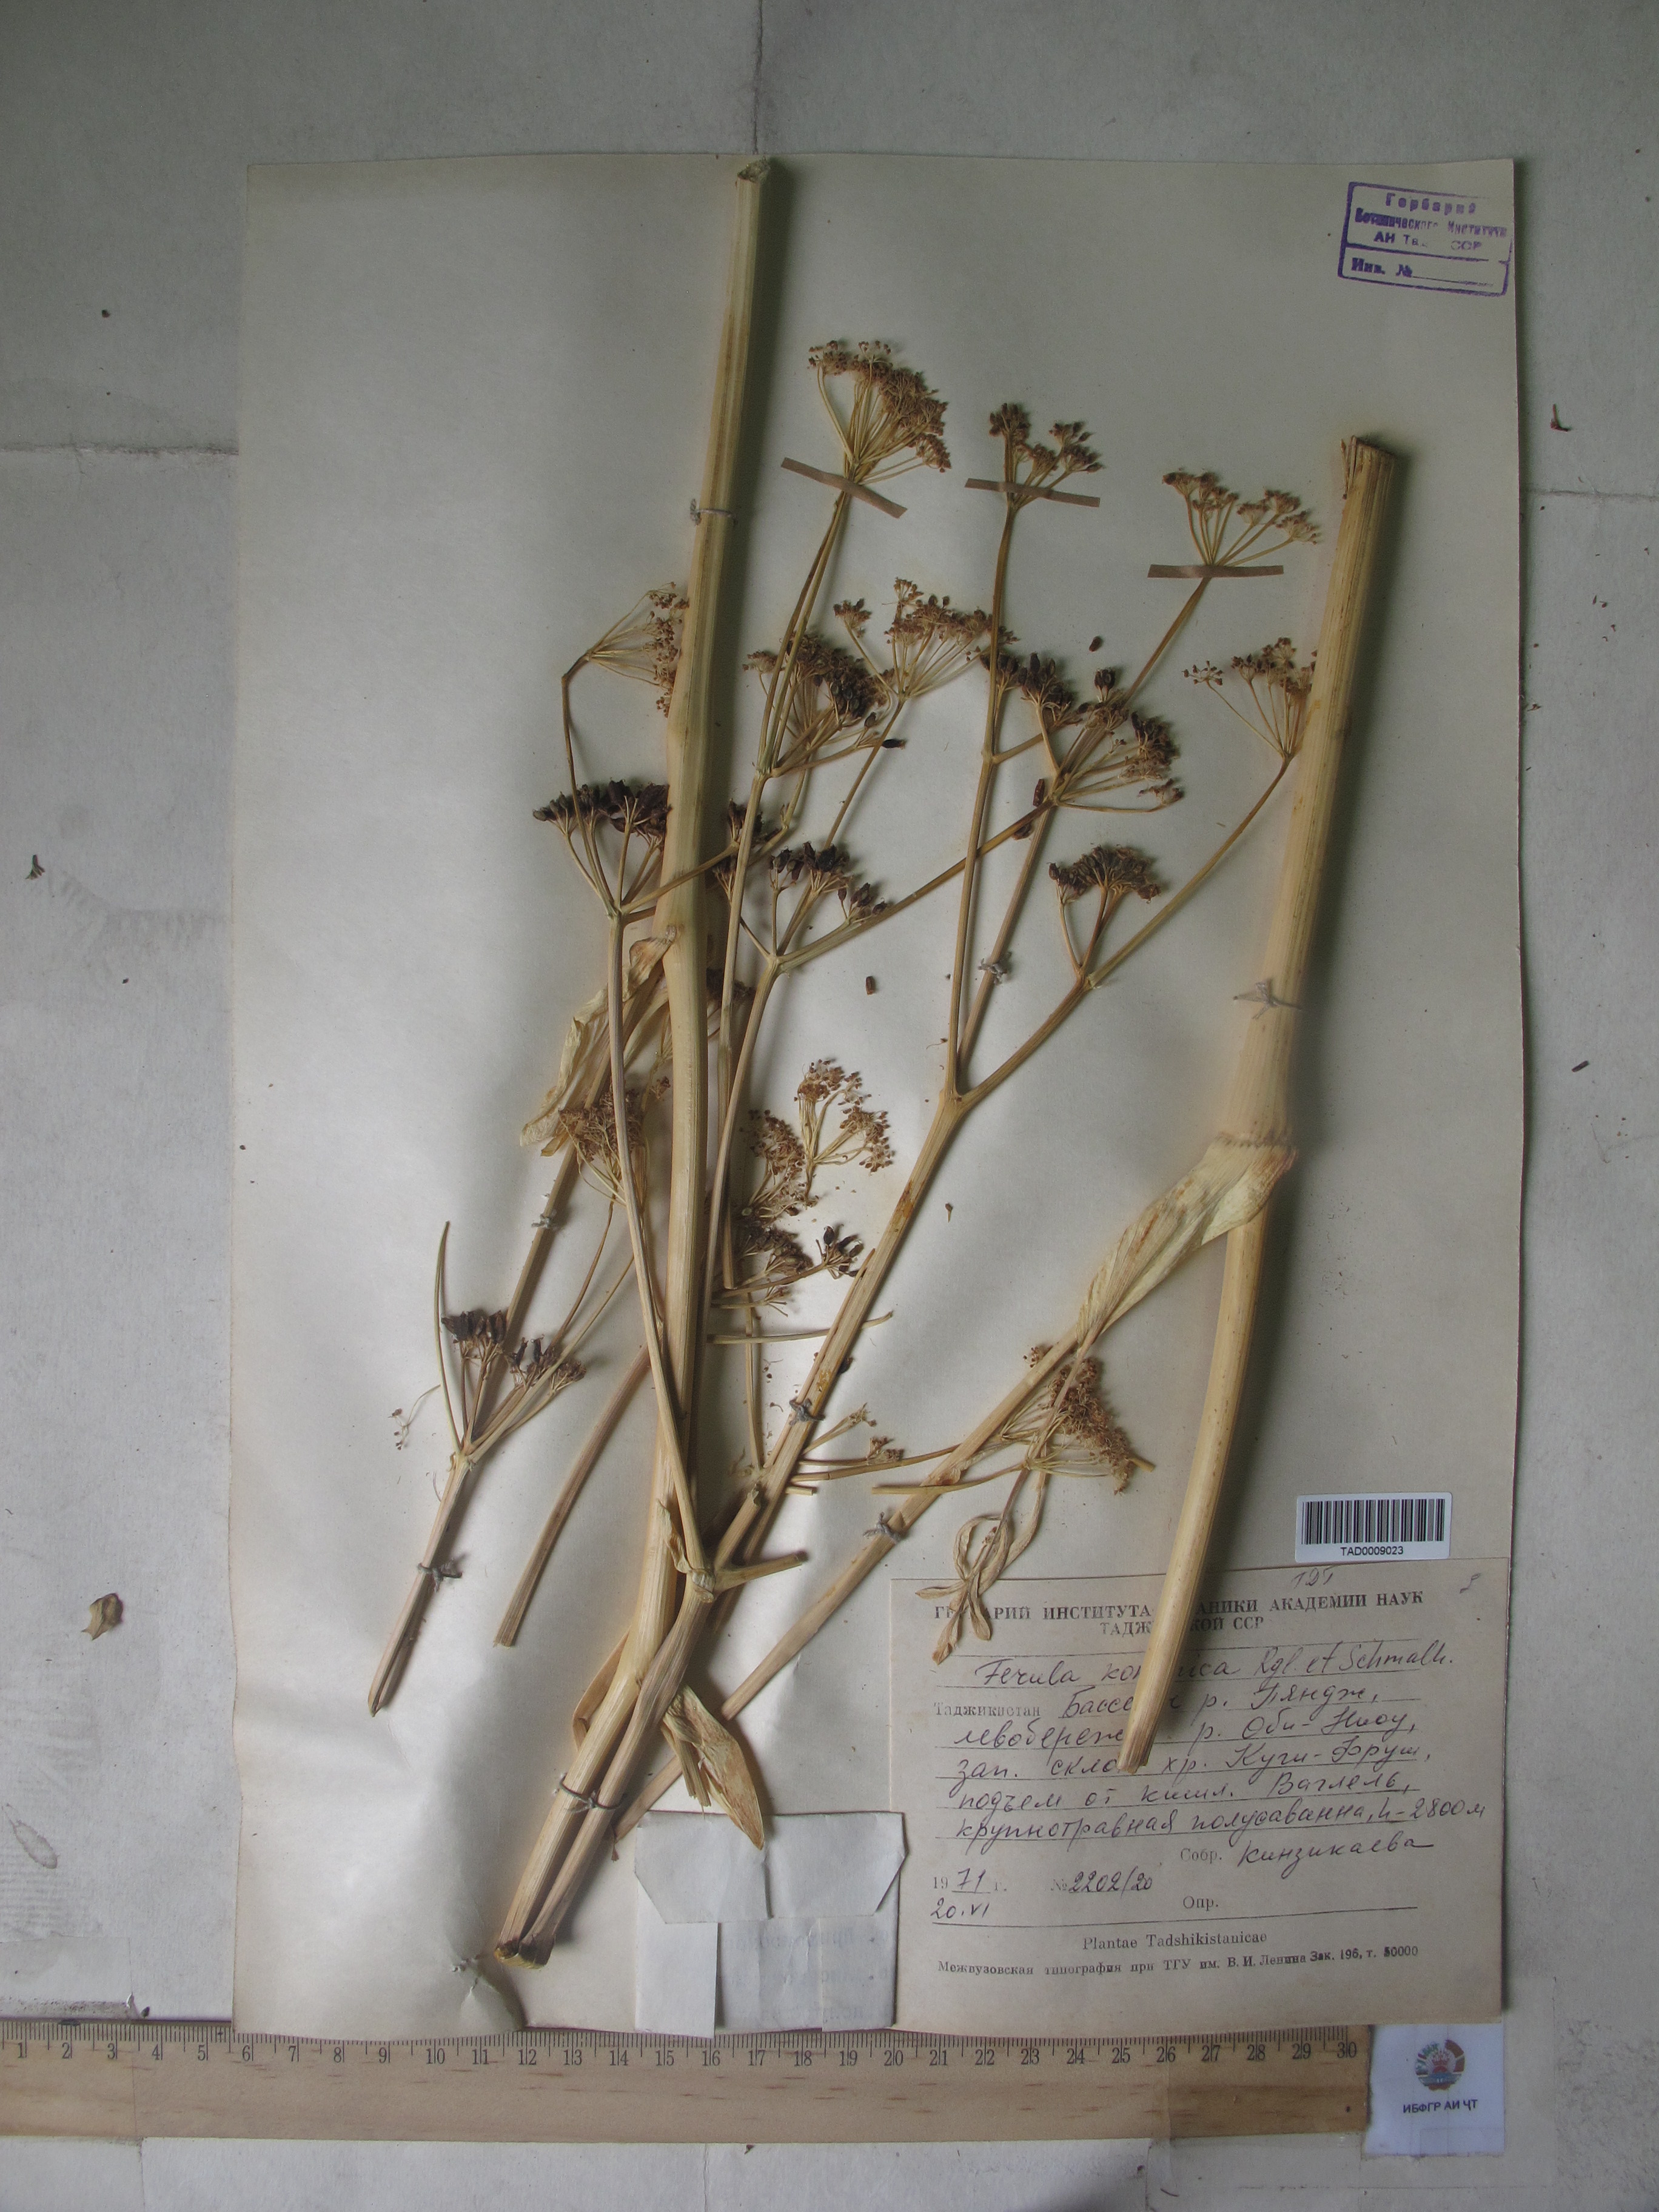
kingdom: Plantae
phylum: Tracheophyta
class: Magnoliopsida
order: Apiales
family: Apiaceae
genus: Ferula
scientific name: Ferula kokanica
